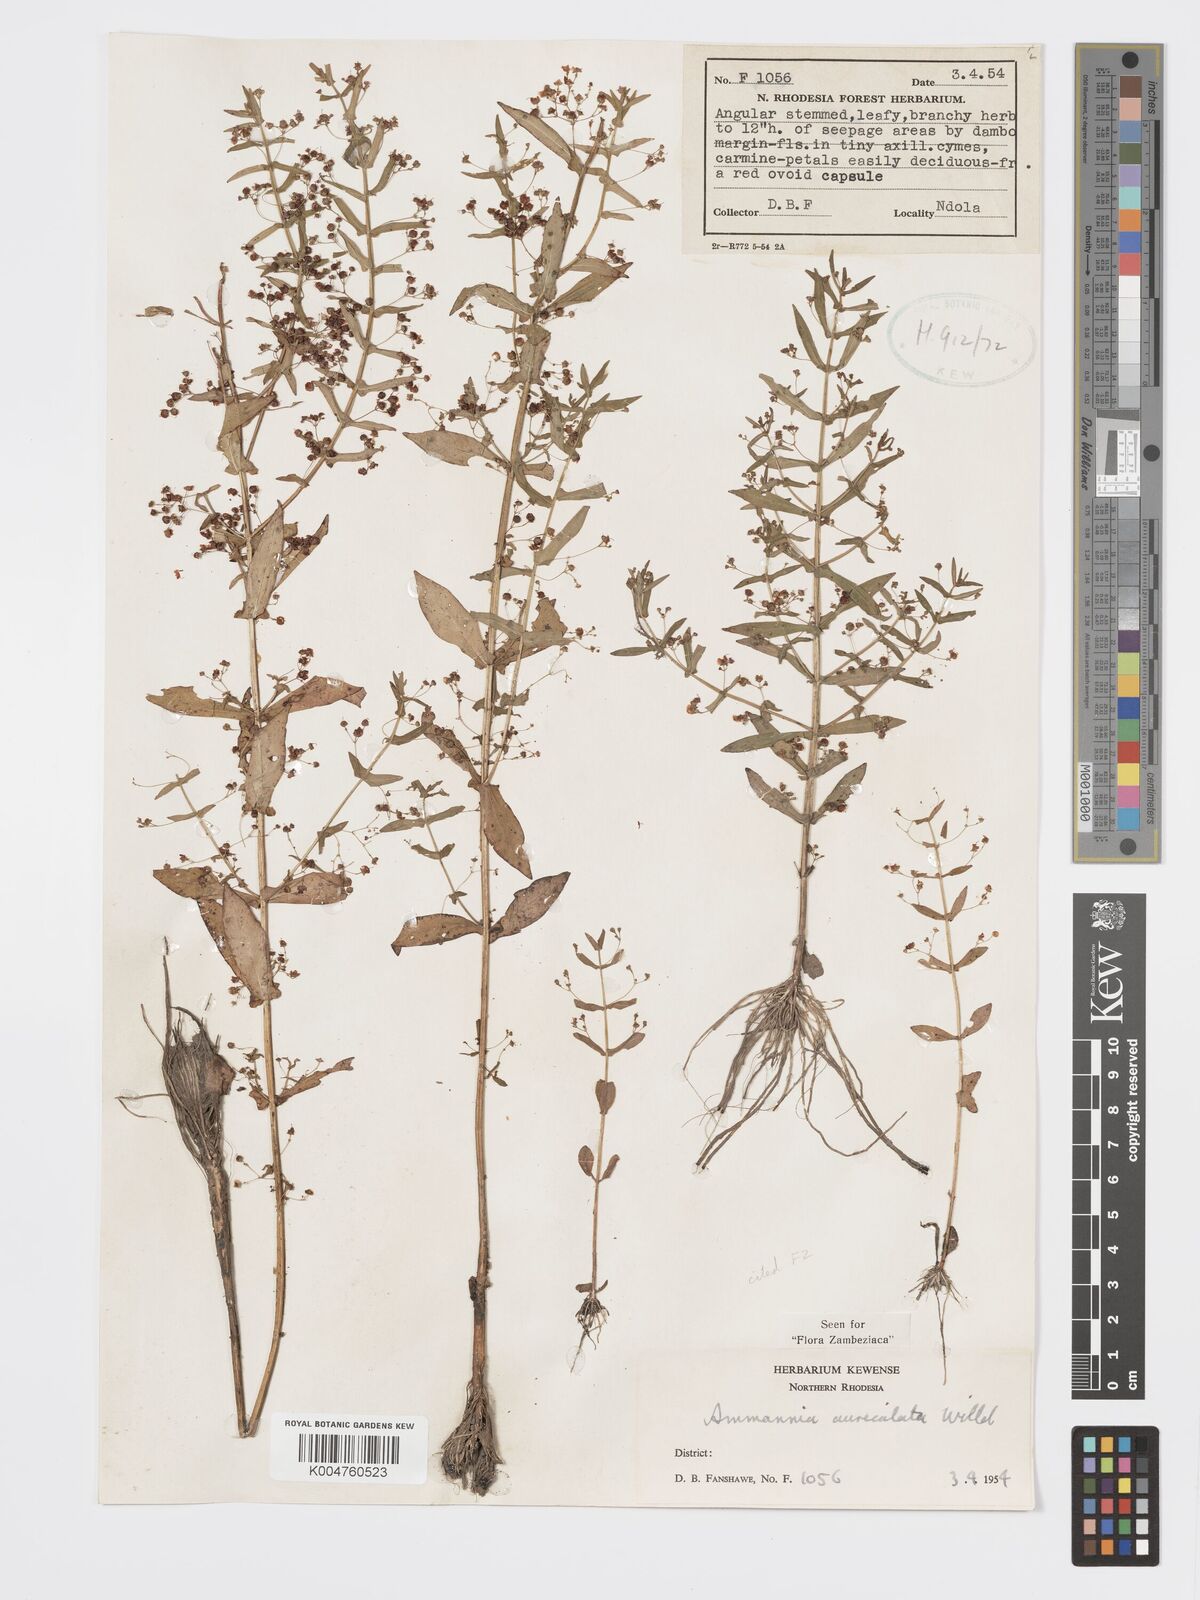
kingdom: Plantae
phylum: Tracheophyta
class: Magnoliopsida
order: Myrtales
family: Lythraceae
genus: Ammannia
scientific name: Ammannia auriculata
